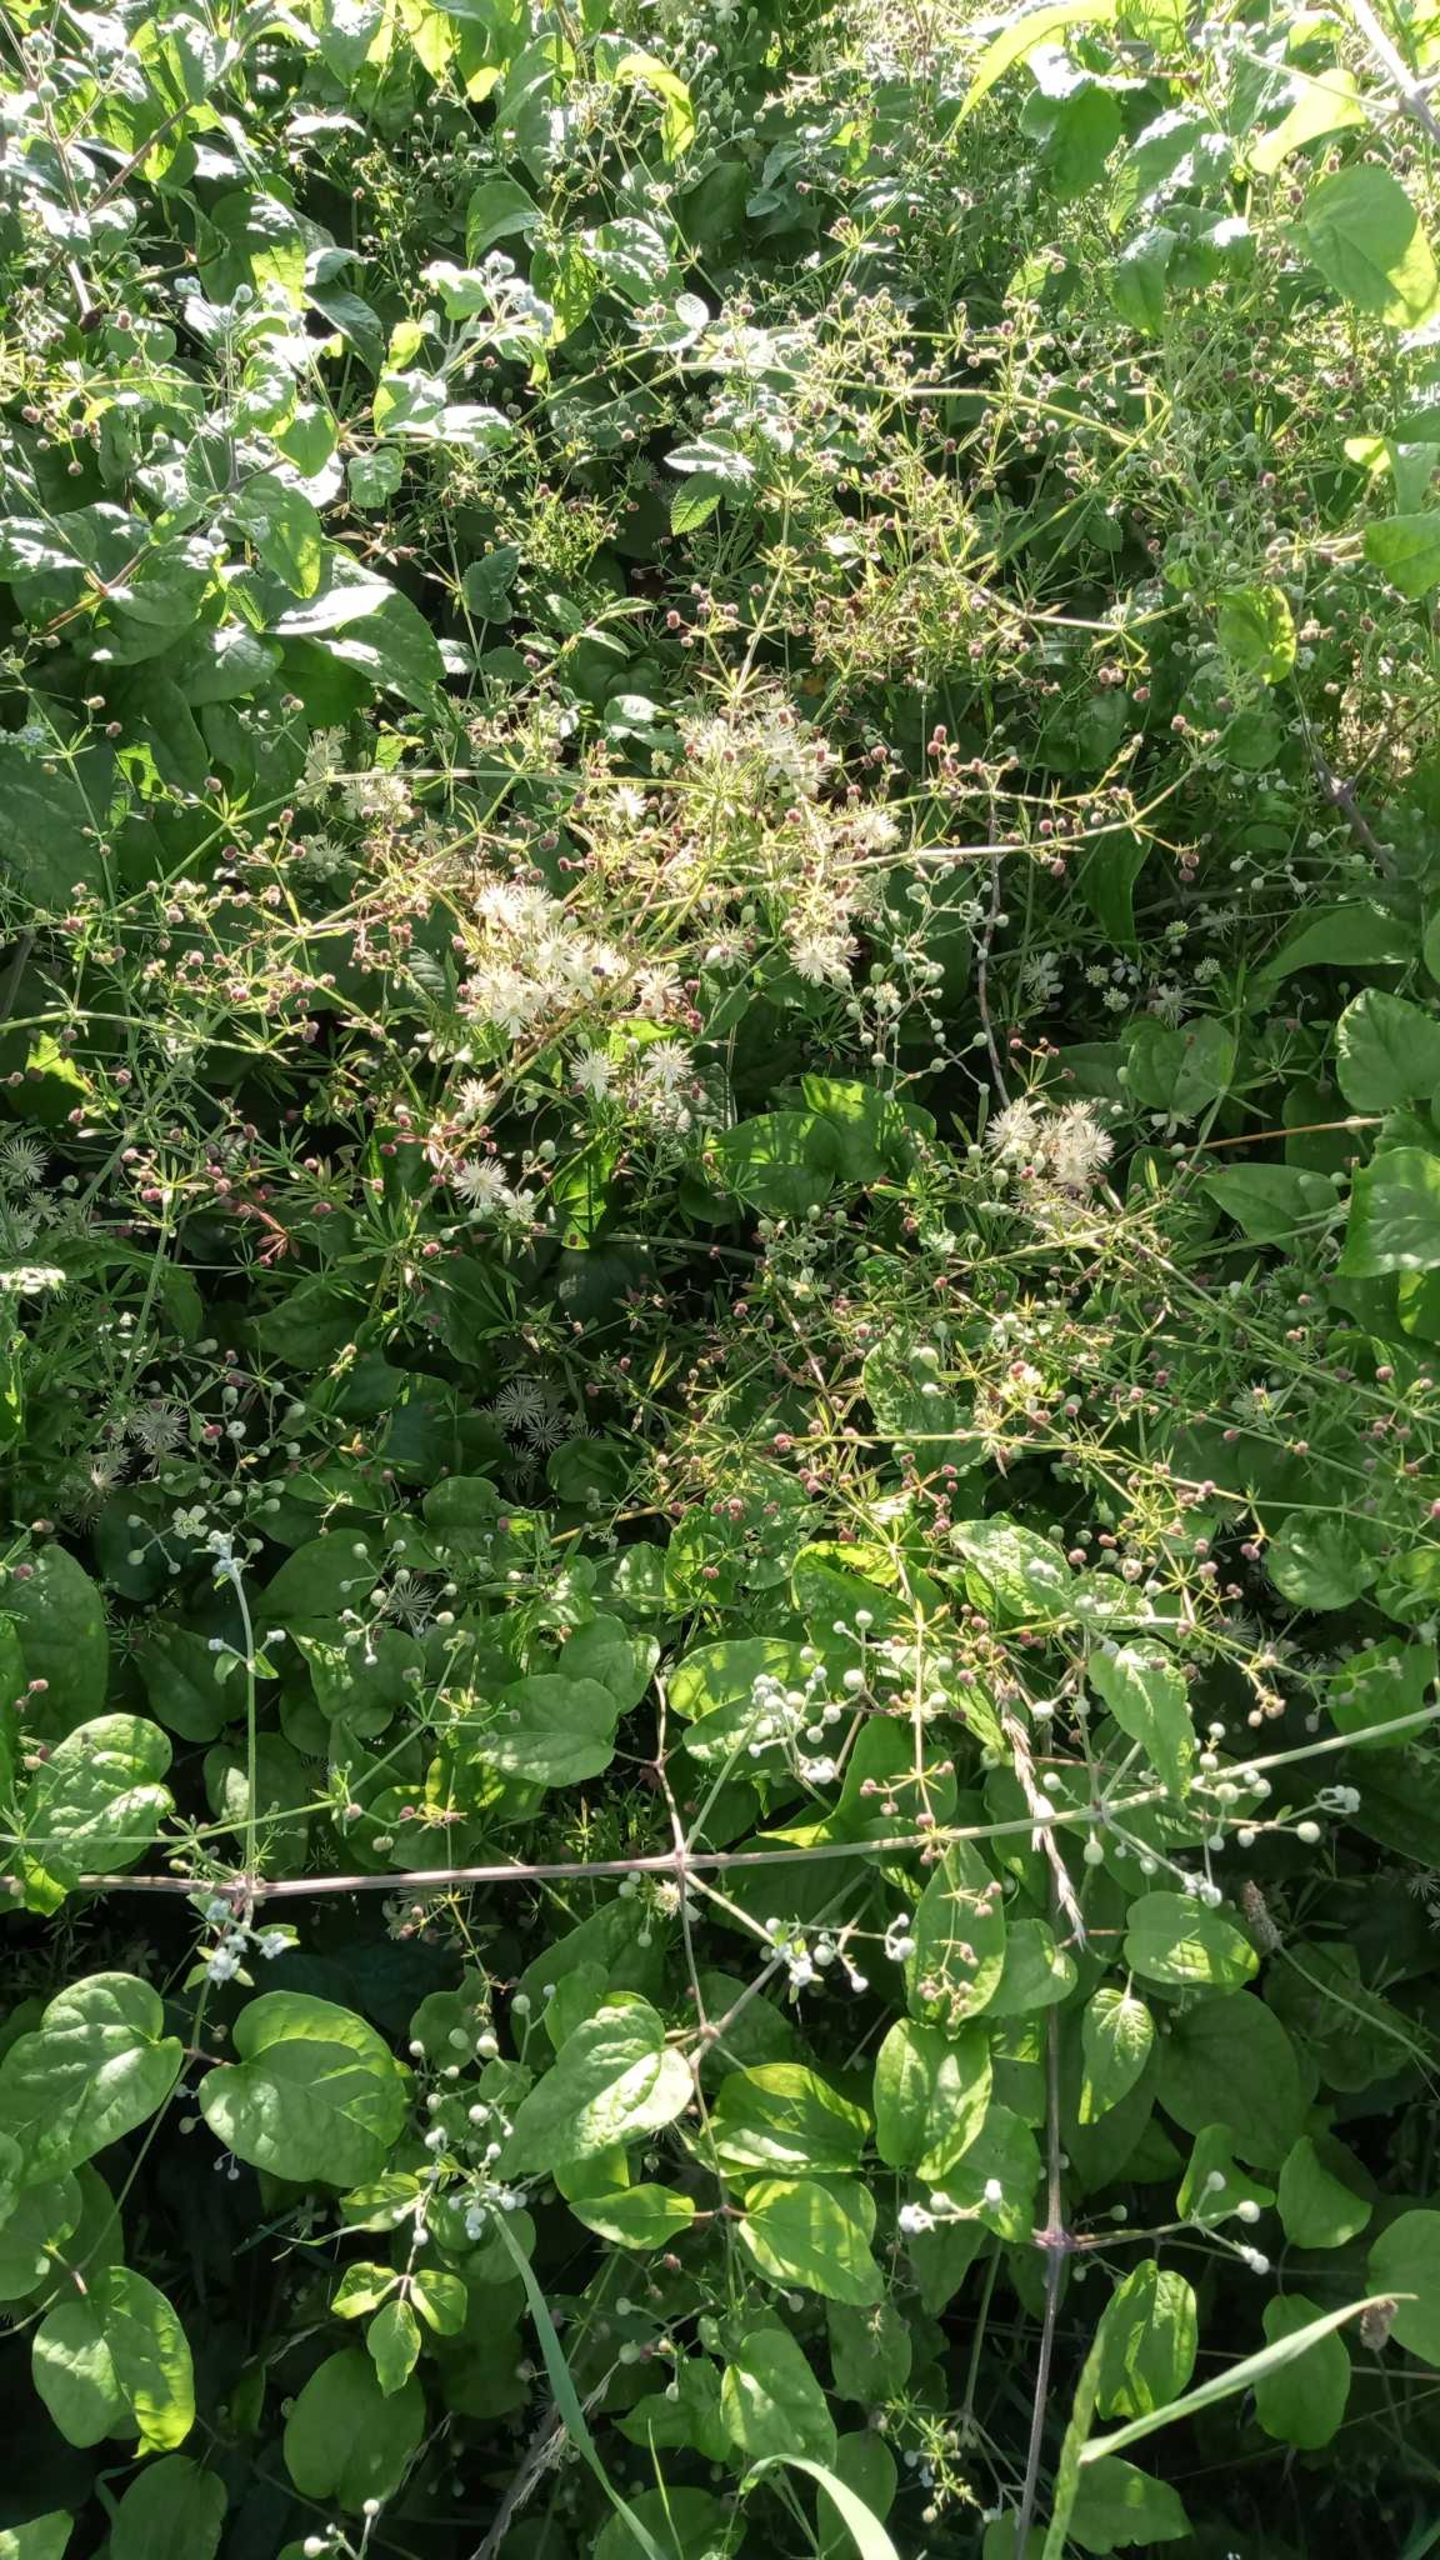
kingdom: Plantae
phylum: Tracheophyta
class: Magnoliopsida
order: Ranunculales
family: Ranunculaceae
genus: Clematis
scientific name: Clematis vitalba
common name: Skovranke
